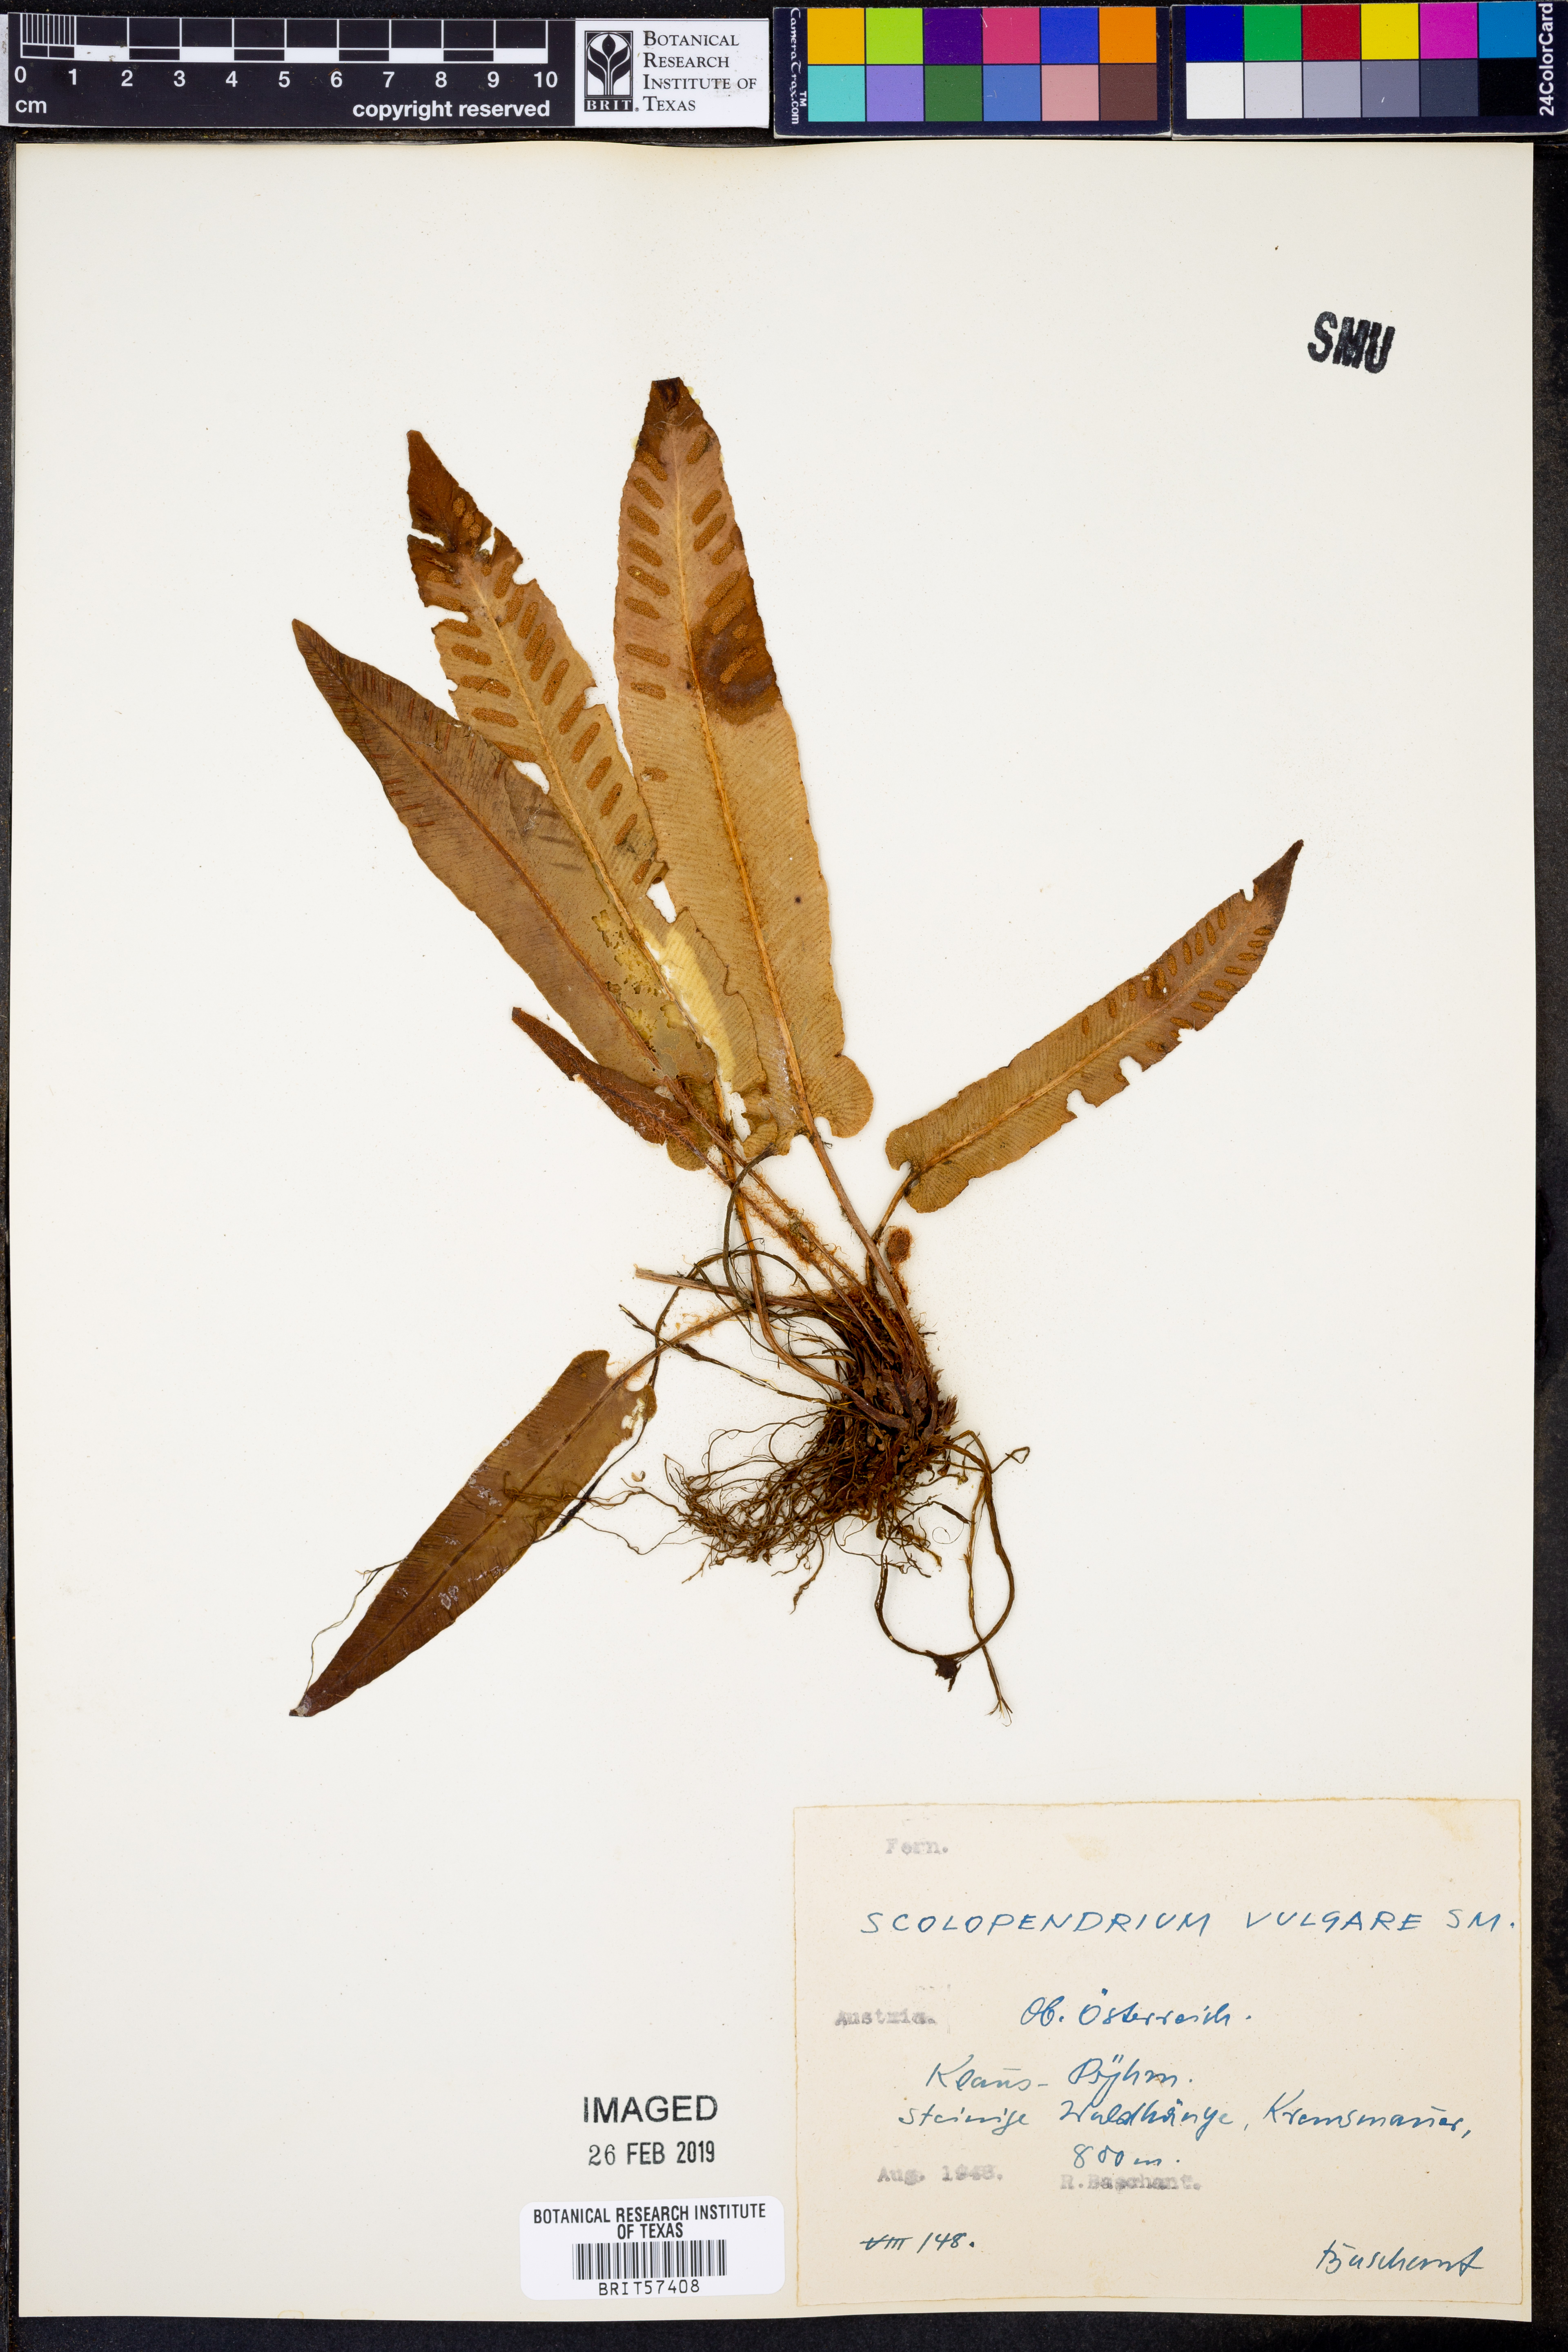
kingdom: Plantae
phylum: Tracheophyta
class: Polypodiopsida
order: Polypodiales
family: Aspleniaceae
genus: Asplenium
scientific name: Asplenium scolopendrium
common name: Hart's-tongue fern
